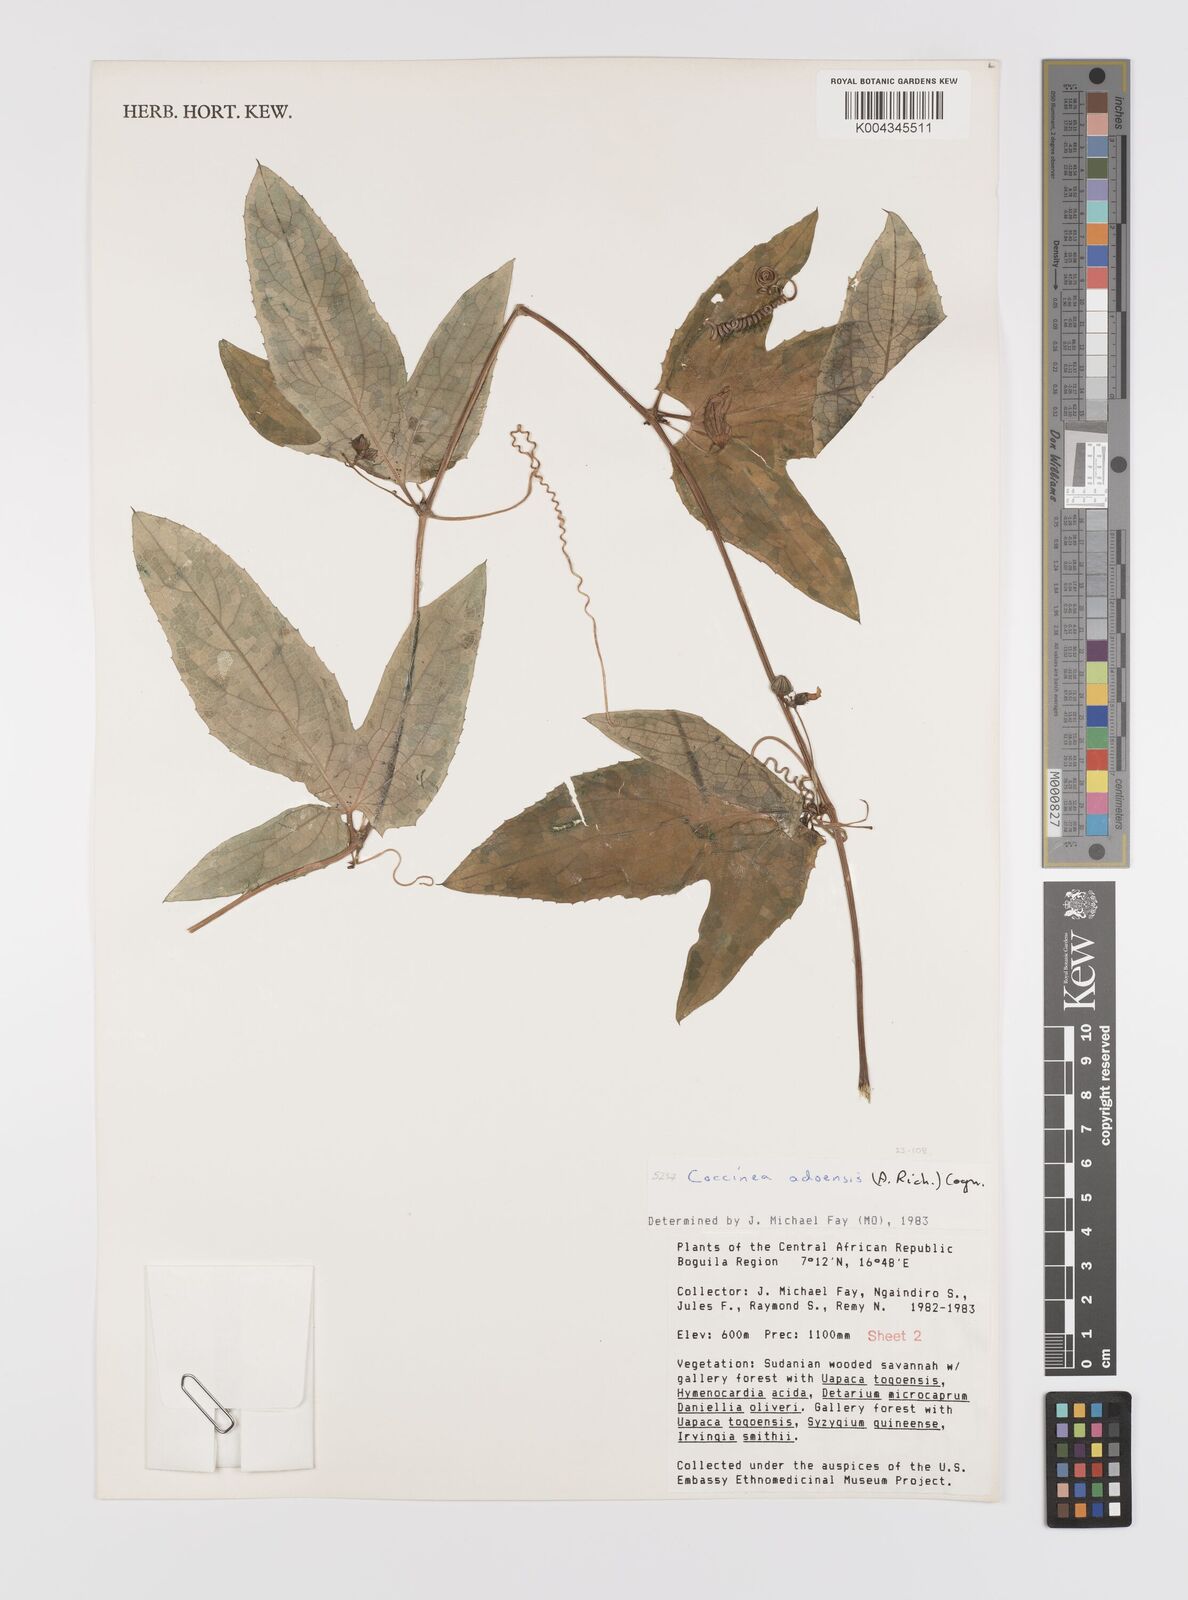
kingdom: Plantae
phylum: Tracheophyta
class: Magnoliopsida
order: Cucurbitales
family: Cucurbitaceae
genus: Coccinia
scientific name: Coccinia adoensis
